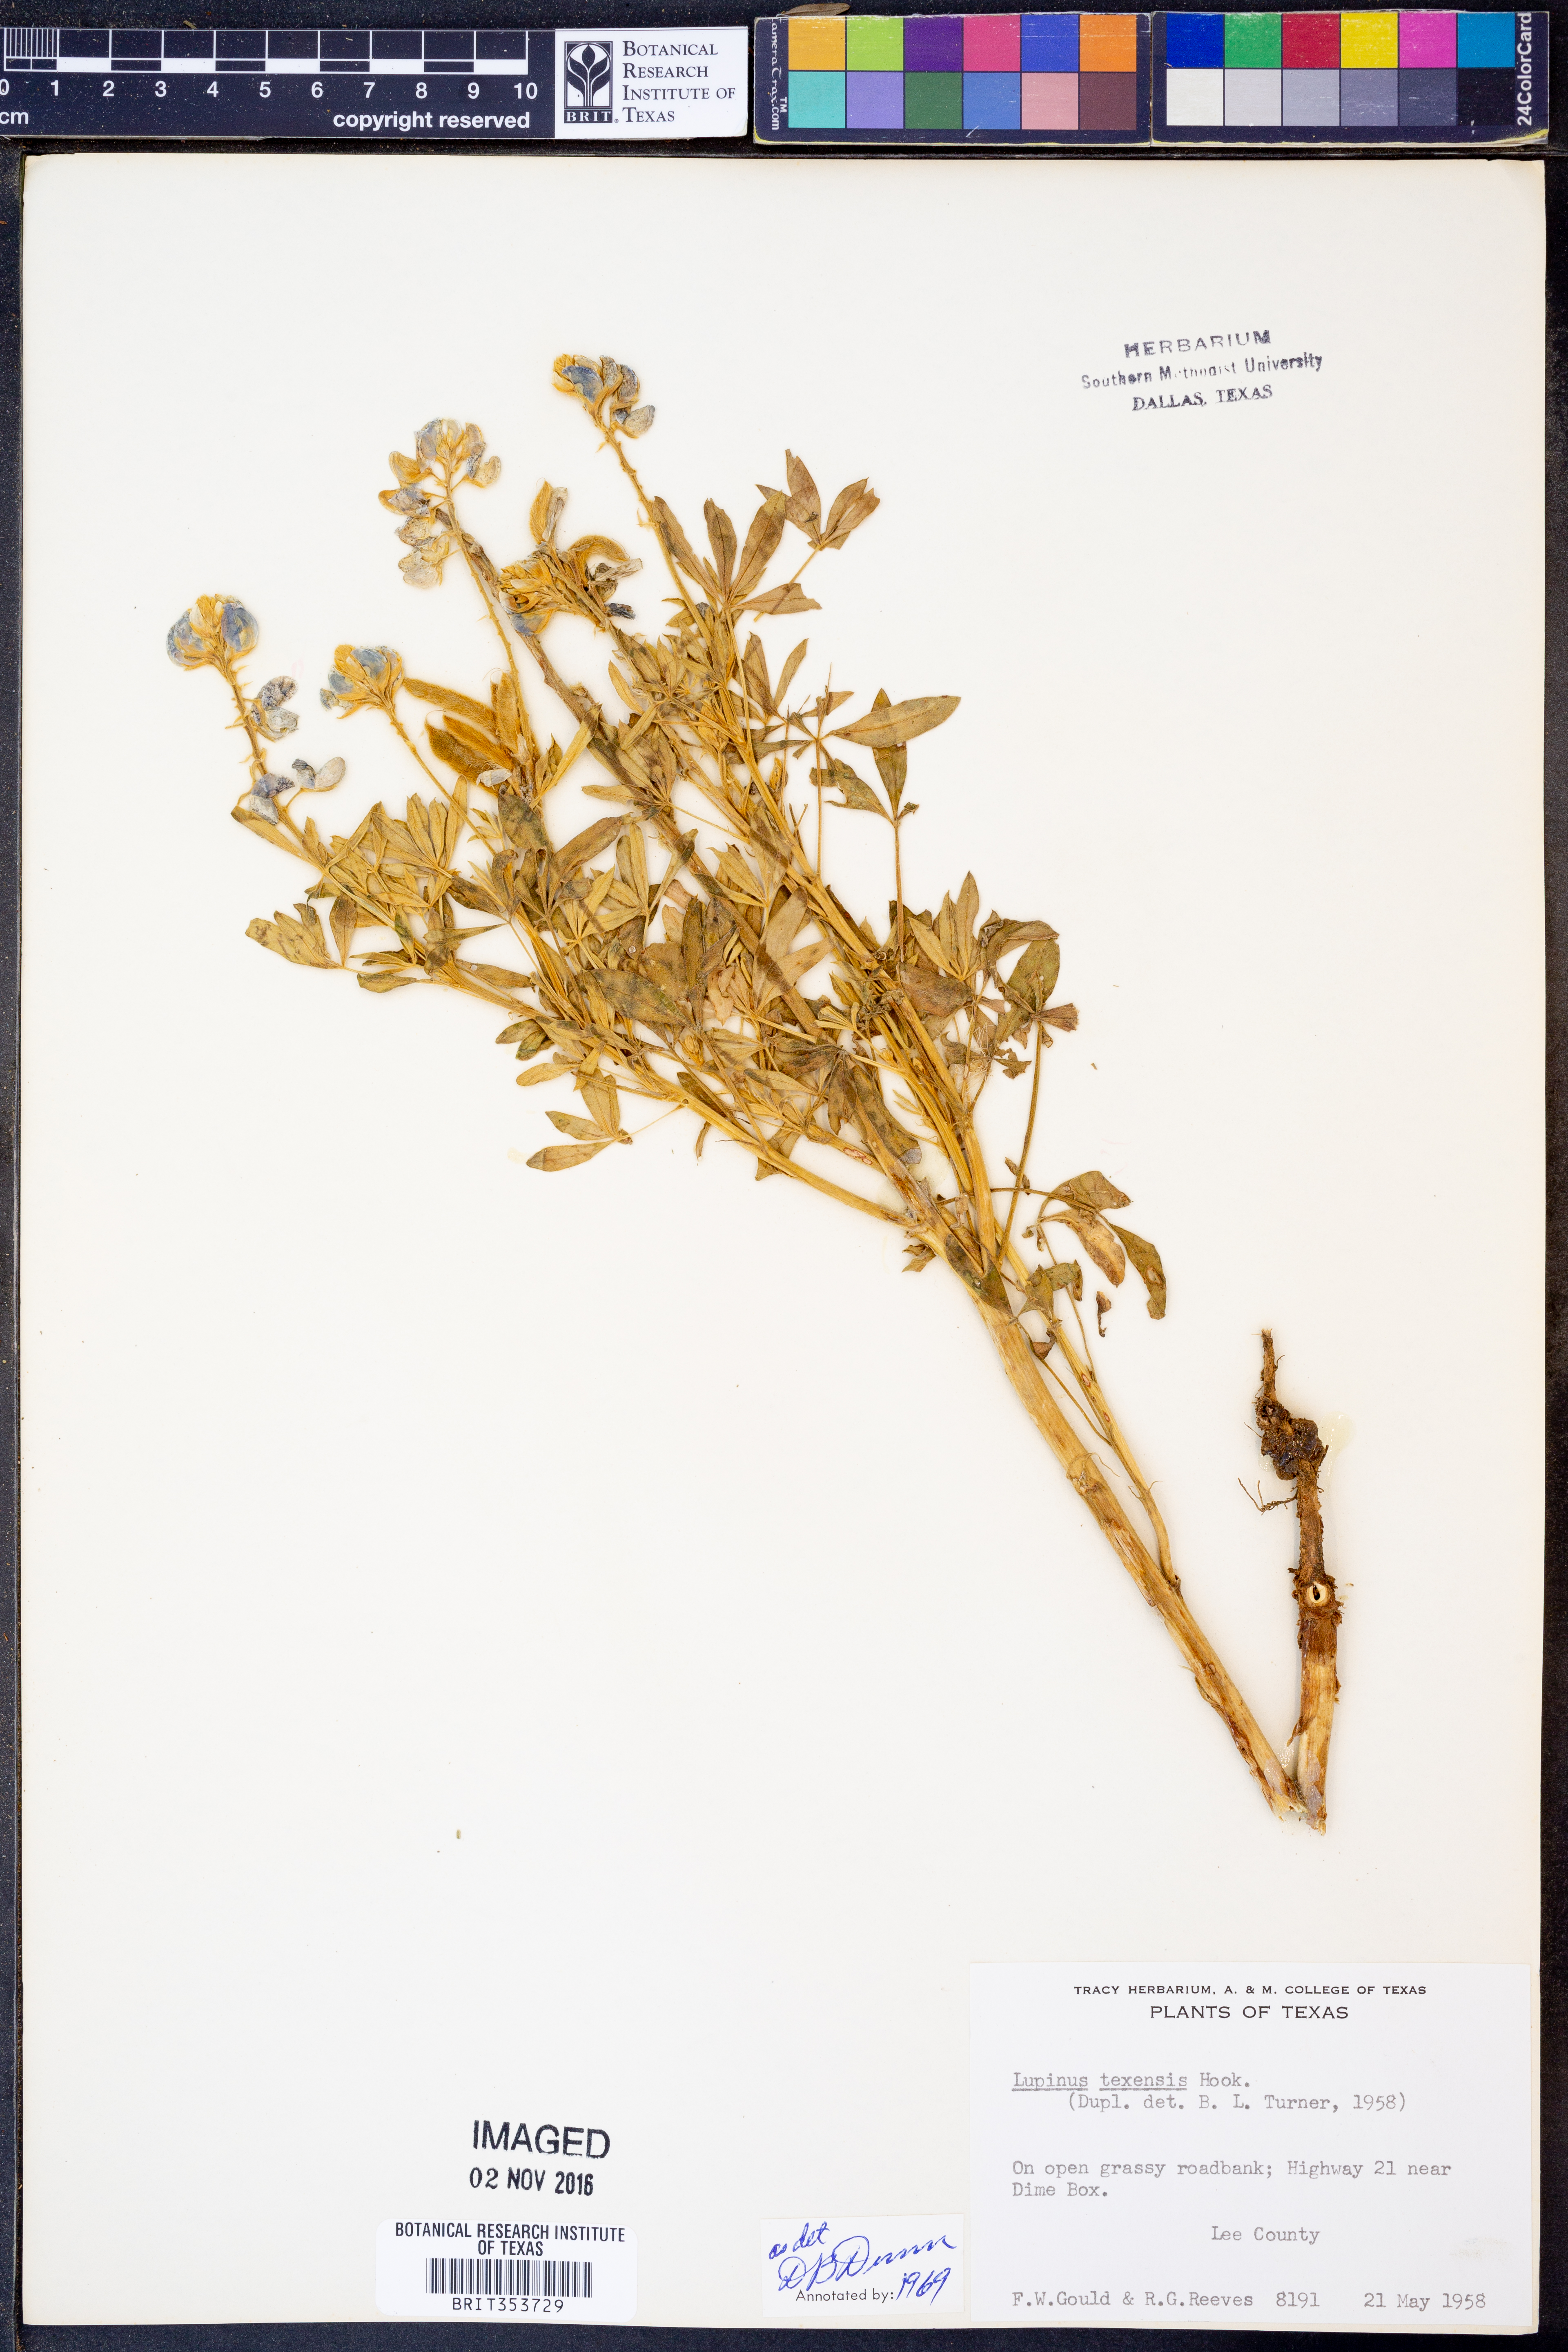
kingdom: Plantae
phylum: Tracheophyta
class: Magnoliopsida
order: Fabales
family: Fabaceae
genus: Lupinus
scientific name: Lupinus texensis
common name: Texas bluebonnet
